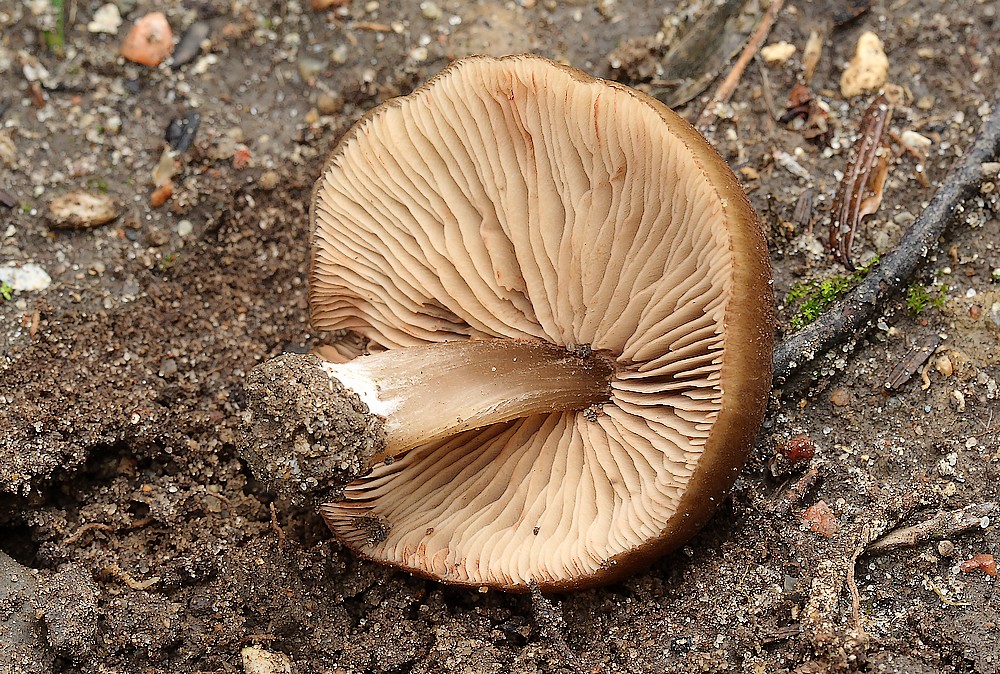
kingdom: Fungi
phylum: Basidiomycota
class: Agaricomycetes
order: Agaricales
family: Entolomataceae
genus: Entoloma
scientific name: Entoloma
